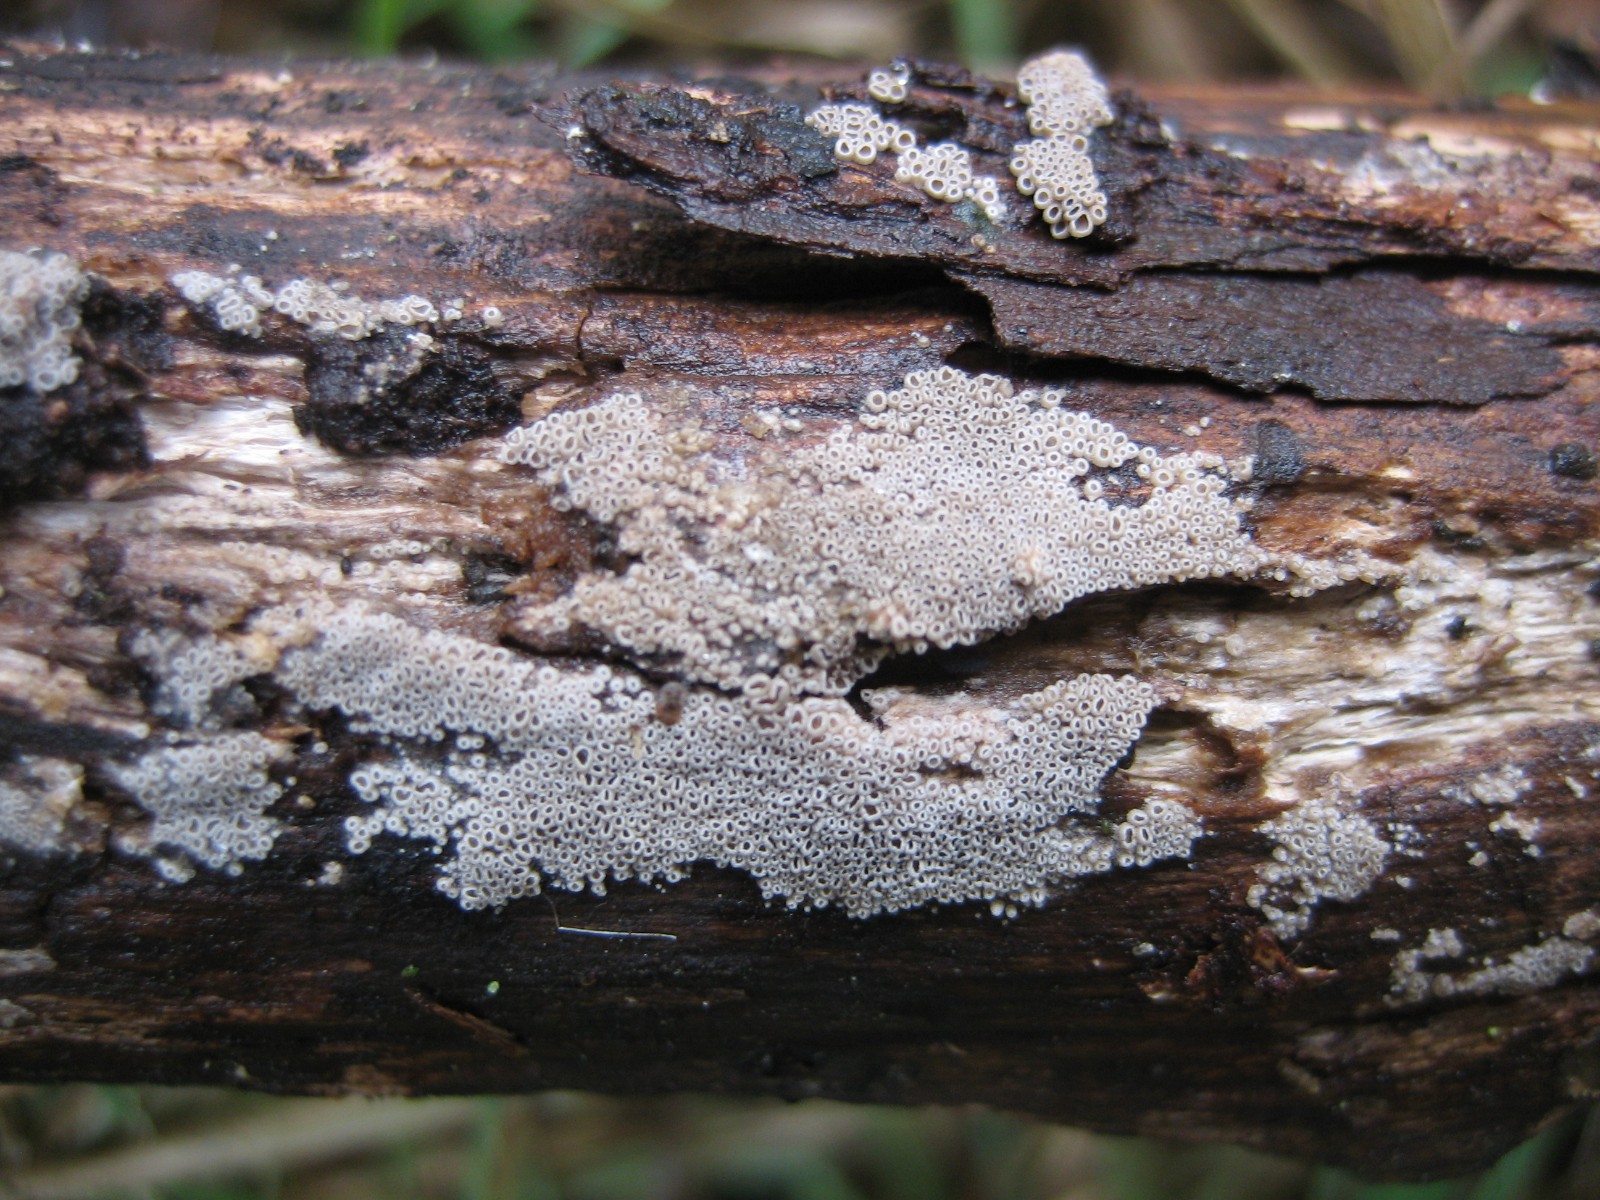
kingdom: Fungi
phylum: Basidiomycota
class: Agaricomycetes
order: Agaricales
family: Pleurotaceae
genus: Resupinatus
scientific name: Resupinatus poriaeformis
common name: tæpperør
